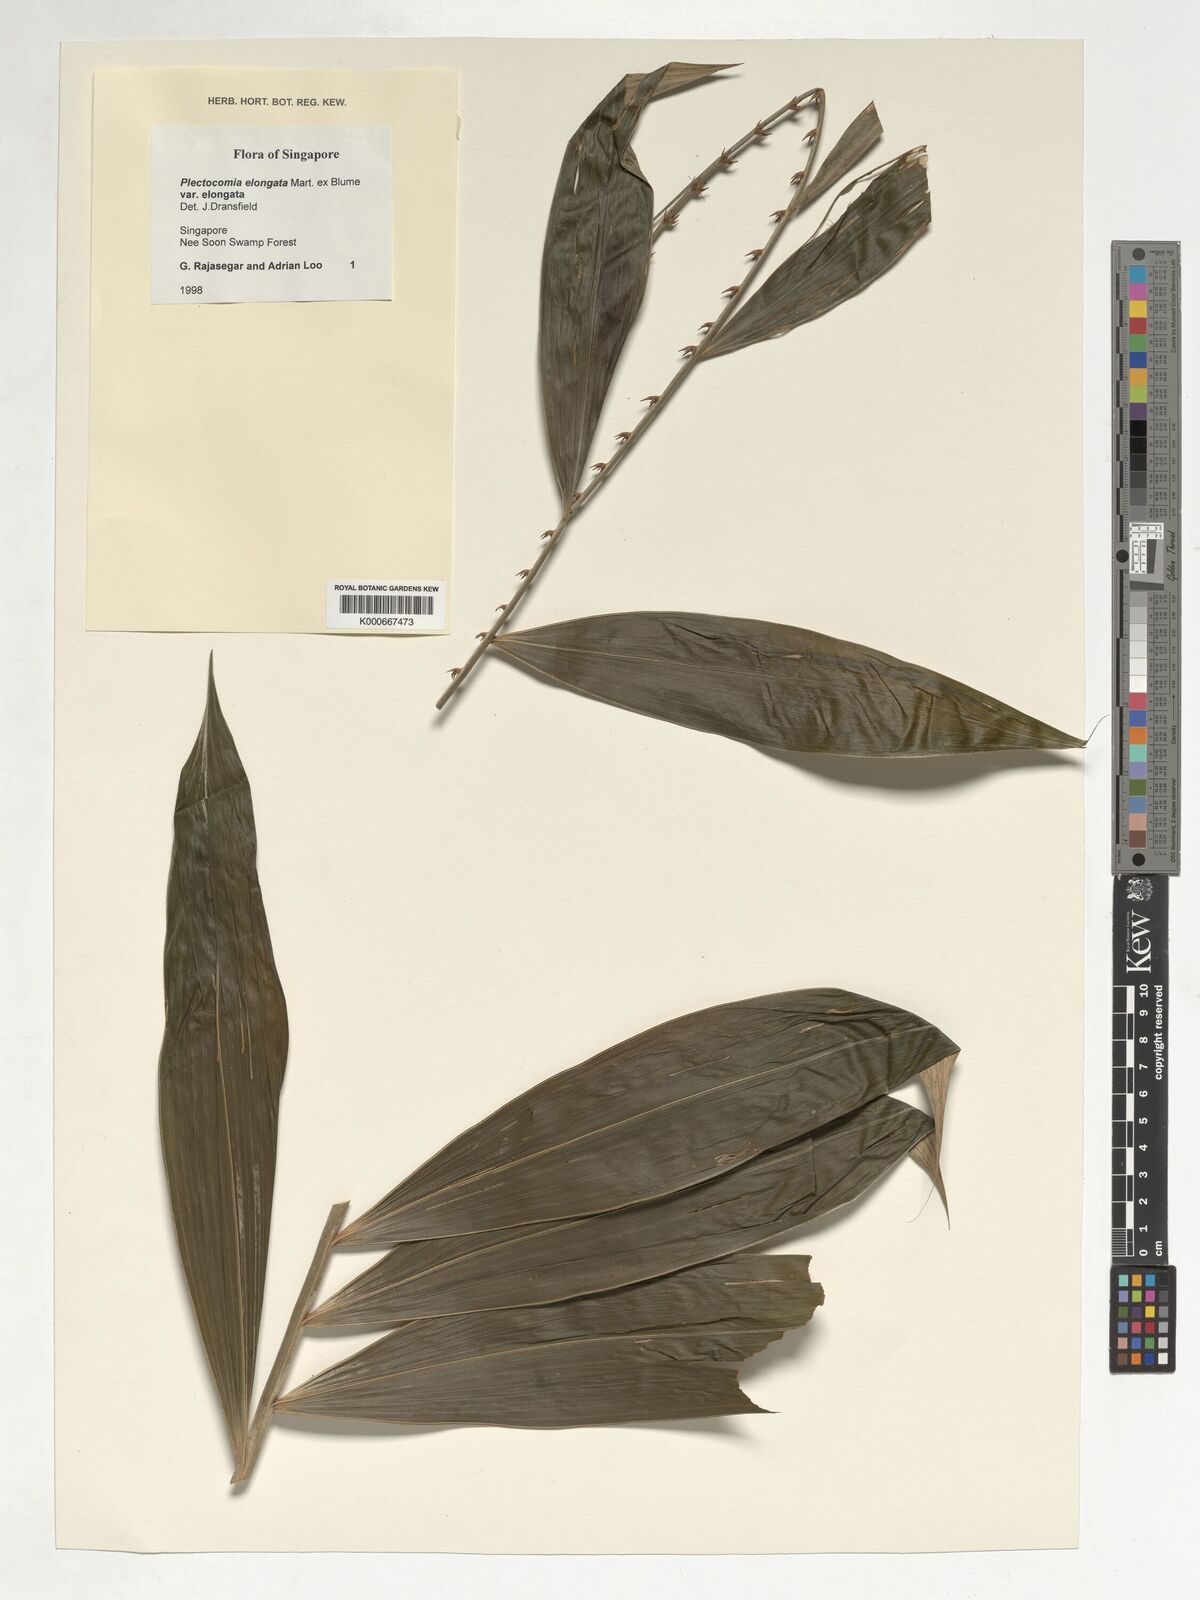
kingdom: Plantae
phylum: Tracheophyta
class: Liliopsida
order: Arecales
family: Arecaceae
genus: Plectocomia
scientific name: Plectocomia elongata
